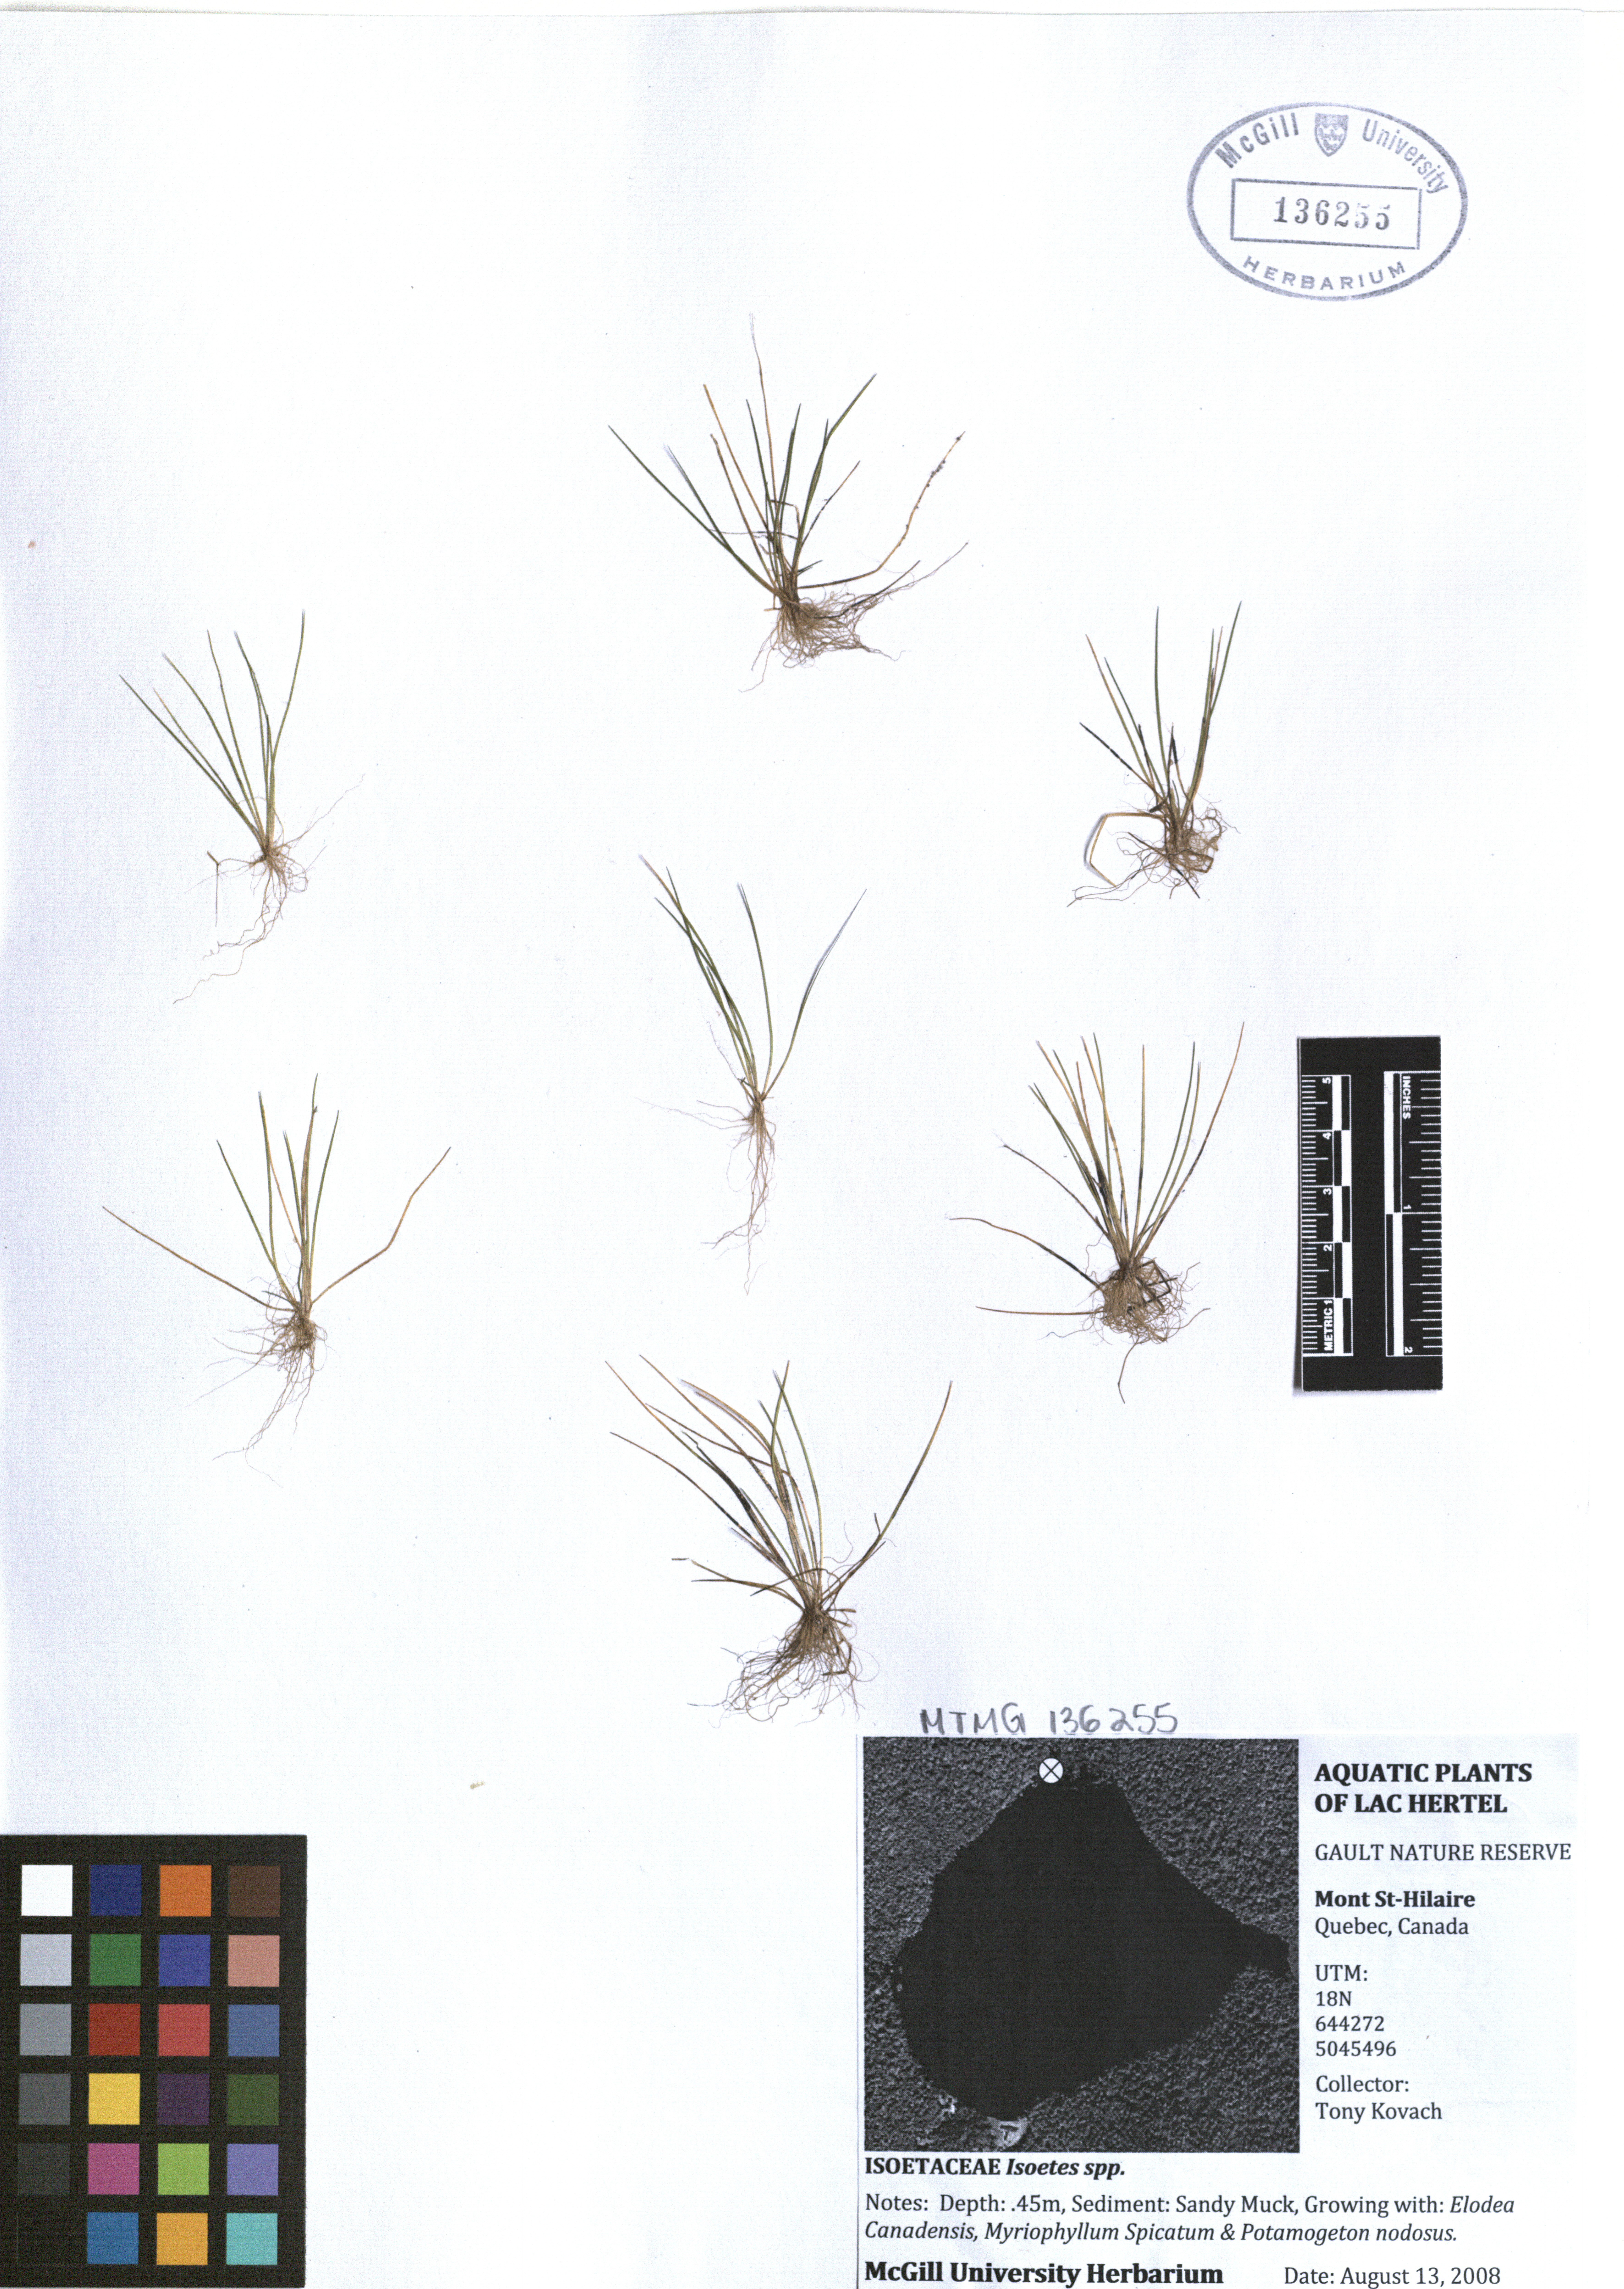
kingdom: Plantae
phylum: Tracheophyta
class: Lycopodiopsida
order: Isoetales
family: Isoetaceae
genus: Isoetes
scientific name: Isoetes
